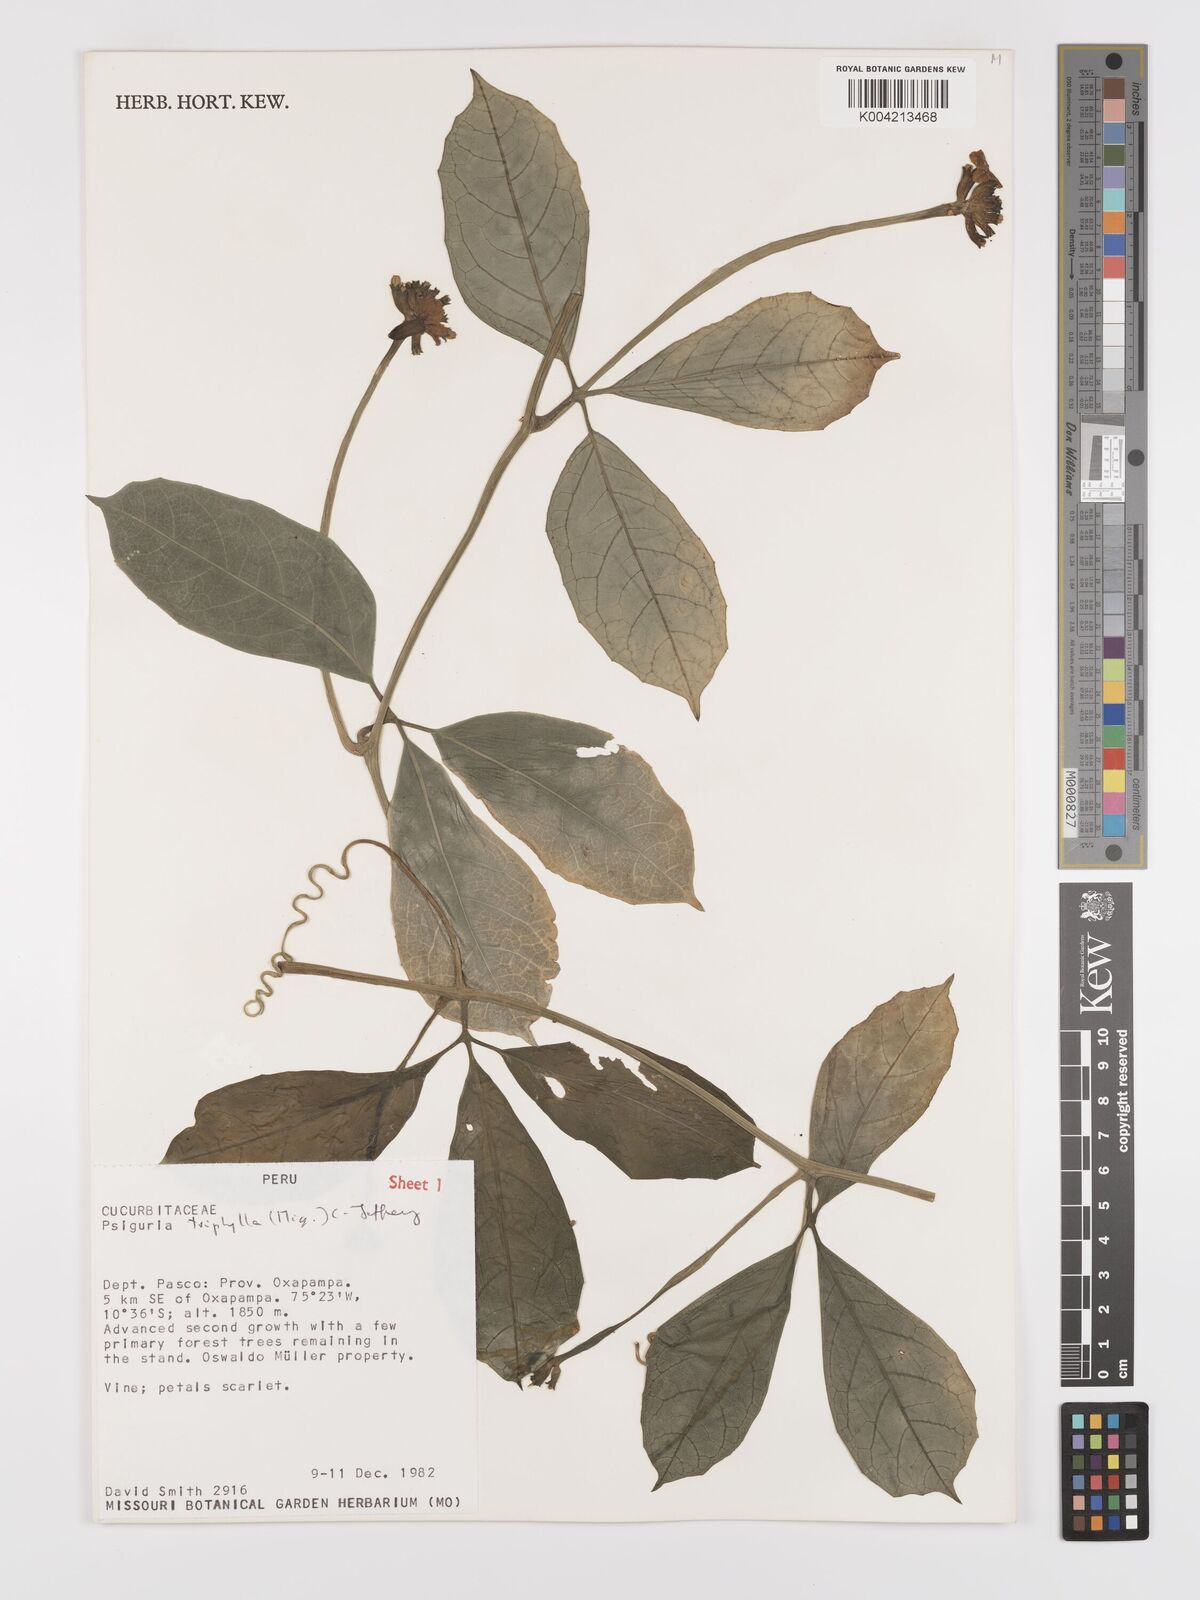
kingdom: Plantae
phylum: Tracheophyta
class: Magnoliopsida
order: Cucurbitales
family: Cucurbitaceae
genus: Psiguria
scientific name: Psiguria triphylla
